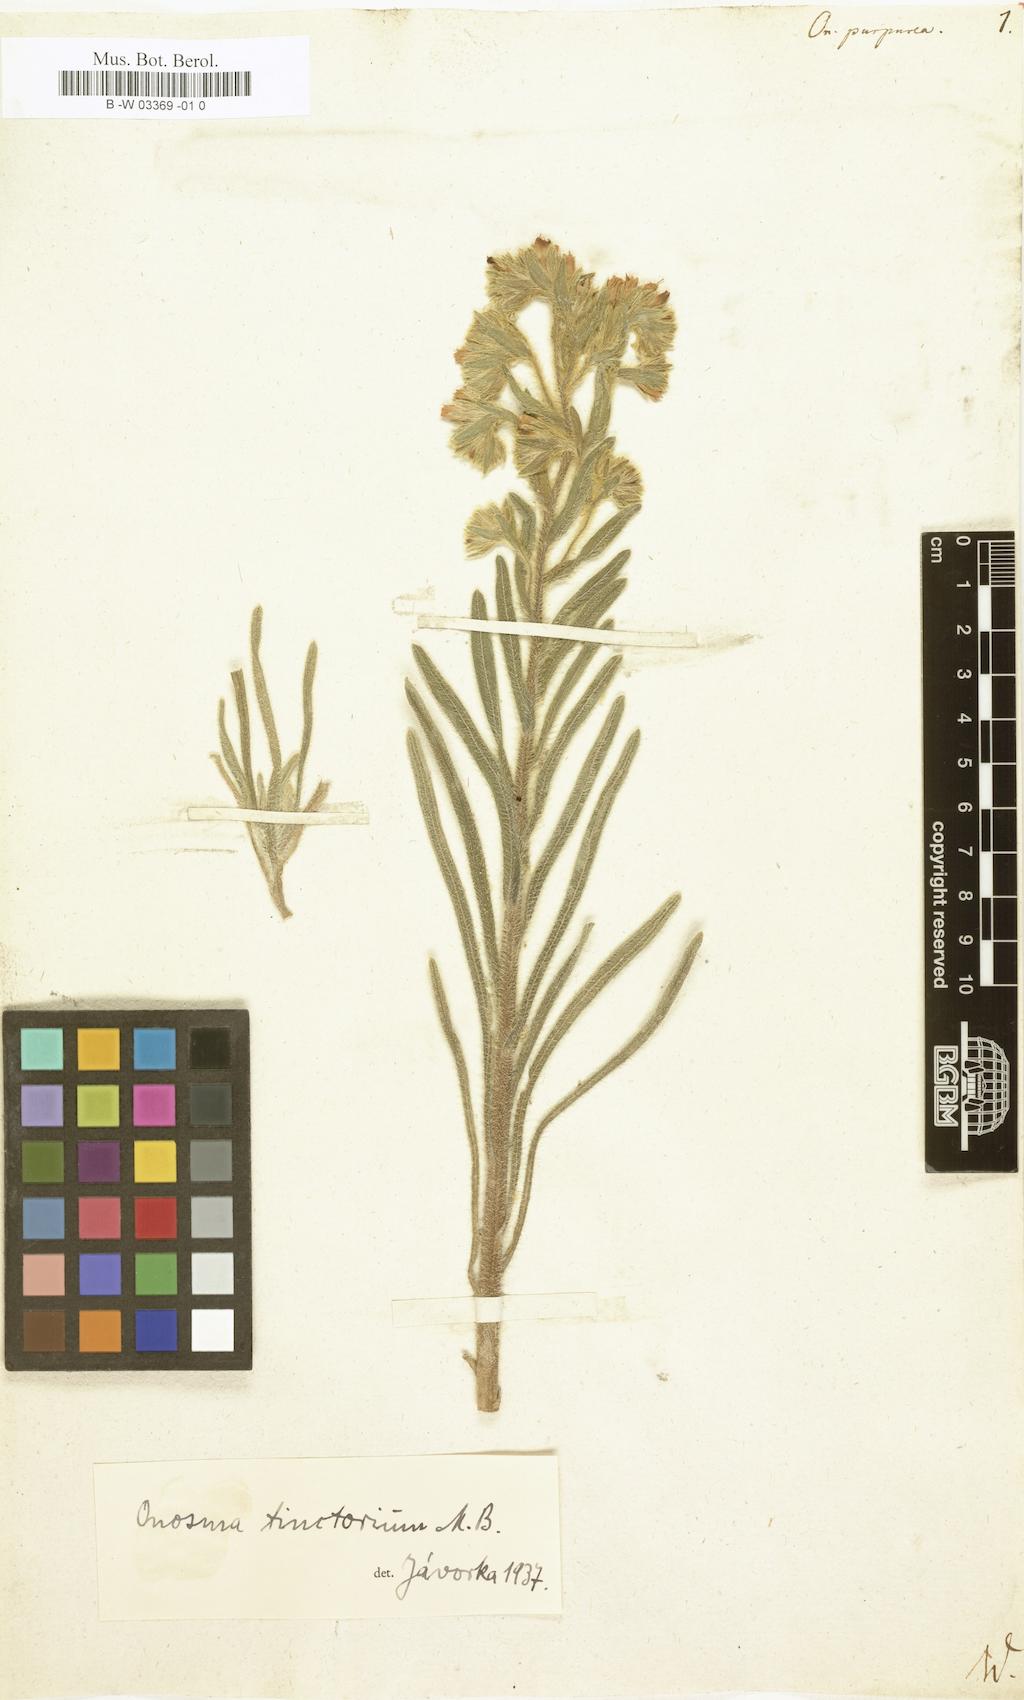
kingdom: Plantae
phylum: Tracheophyta
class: Magnoliopsida
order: Boraginales
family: Boraginaceae
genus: Onosma
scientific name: Onosma
